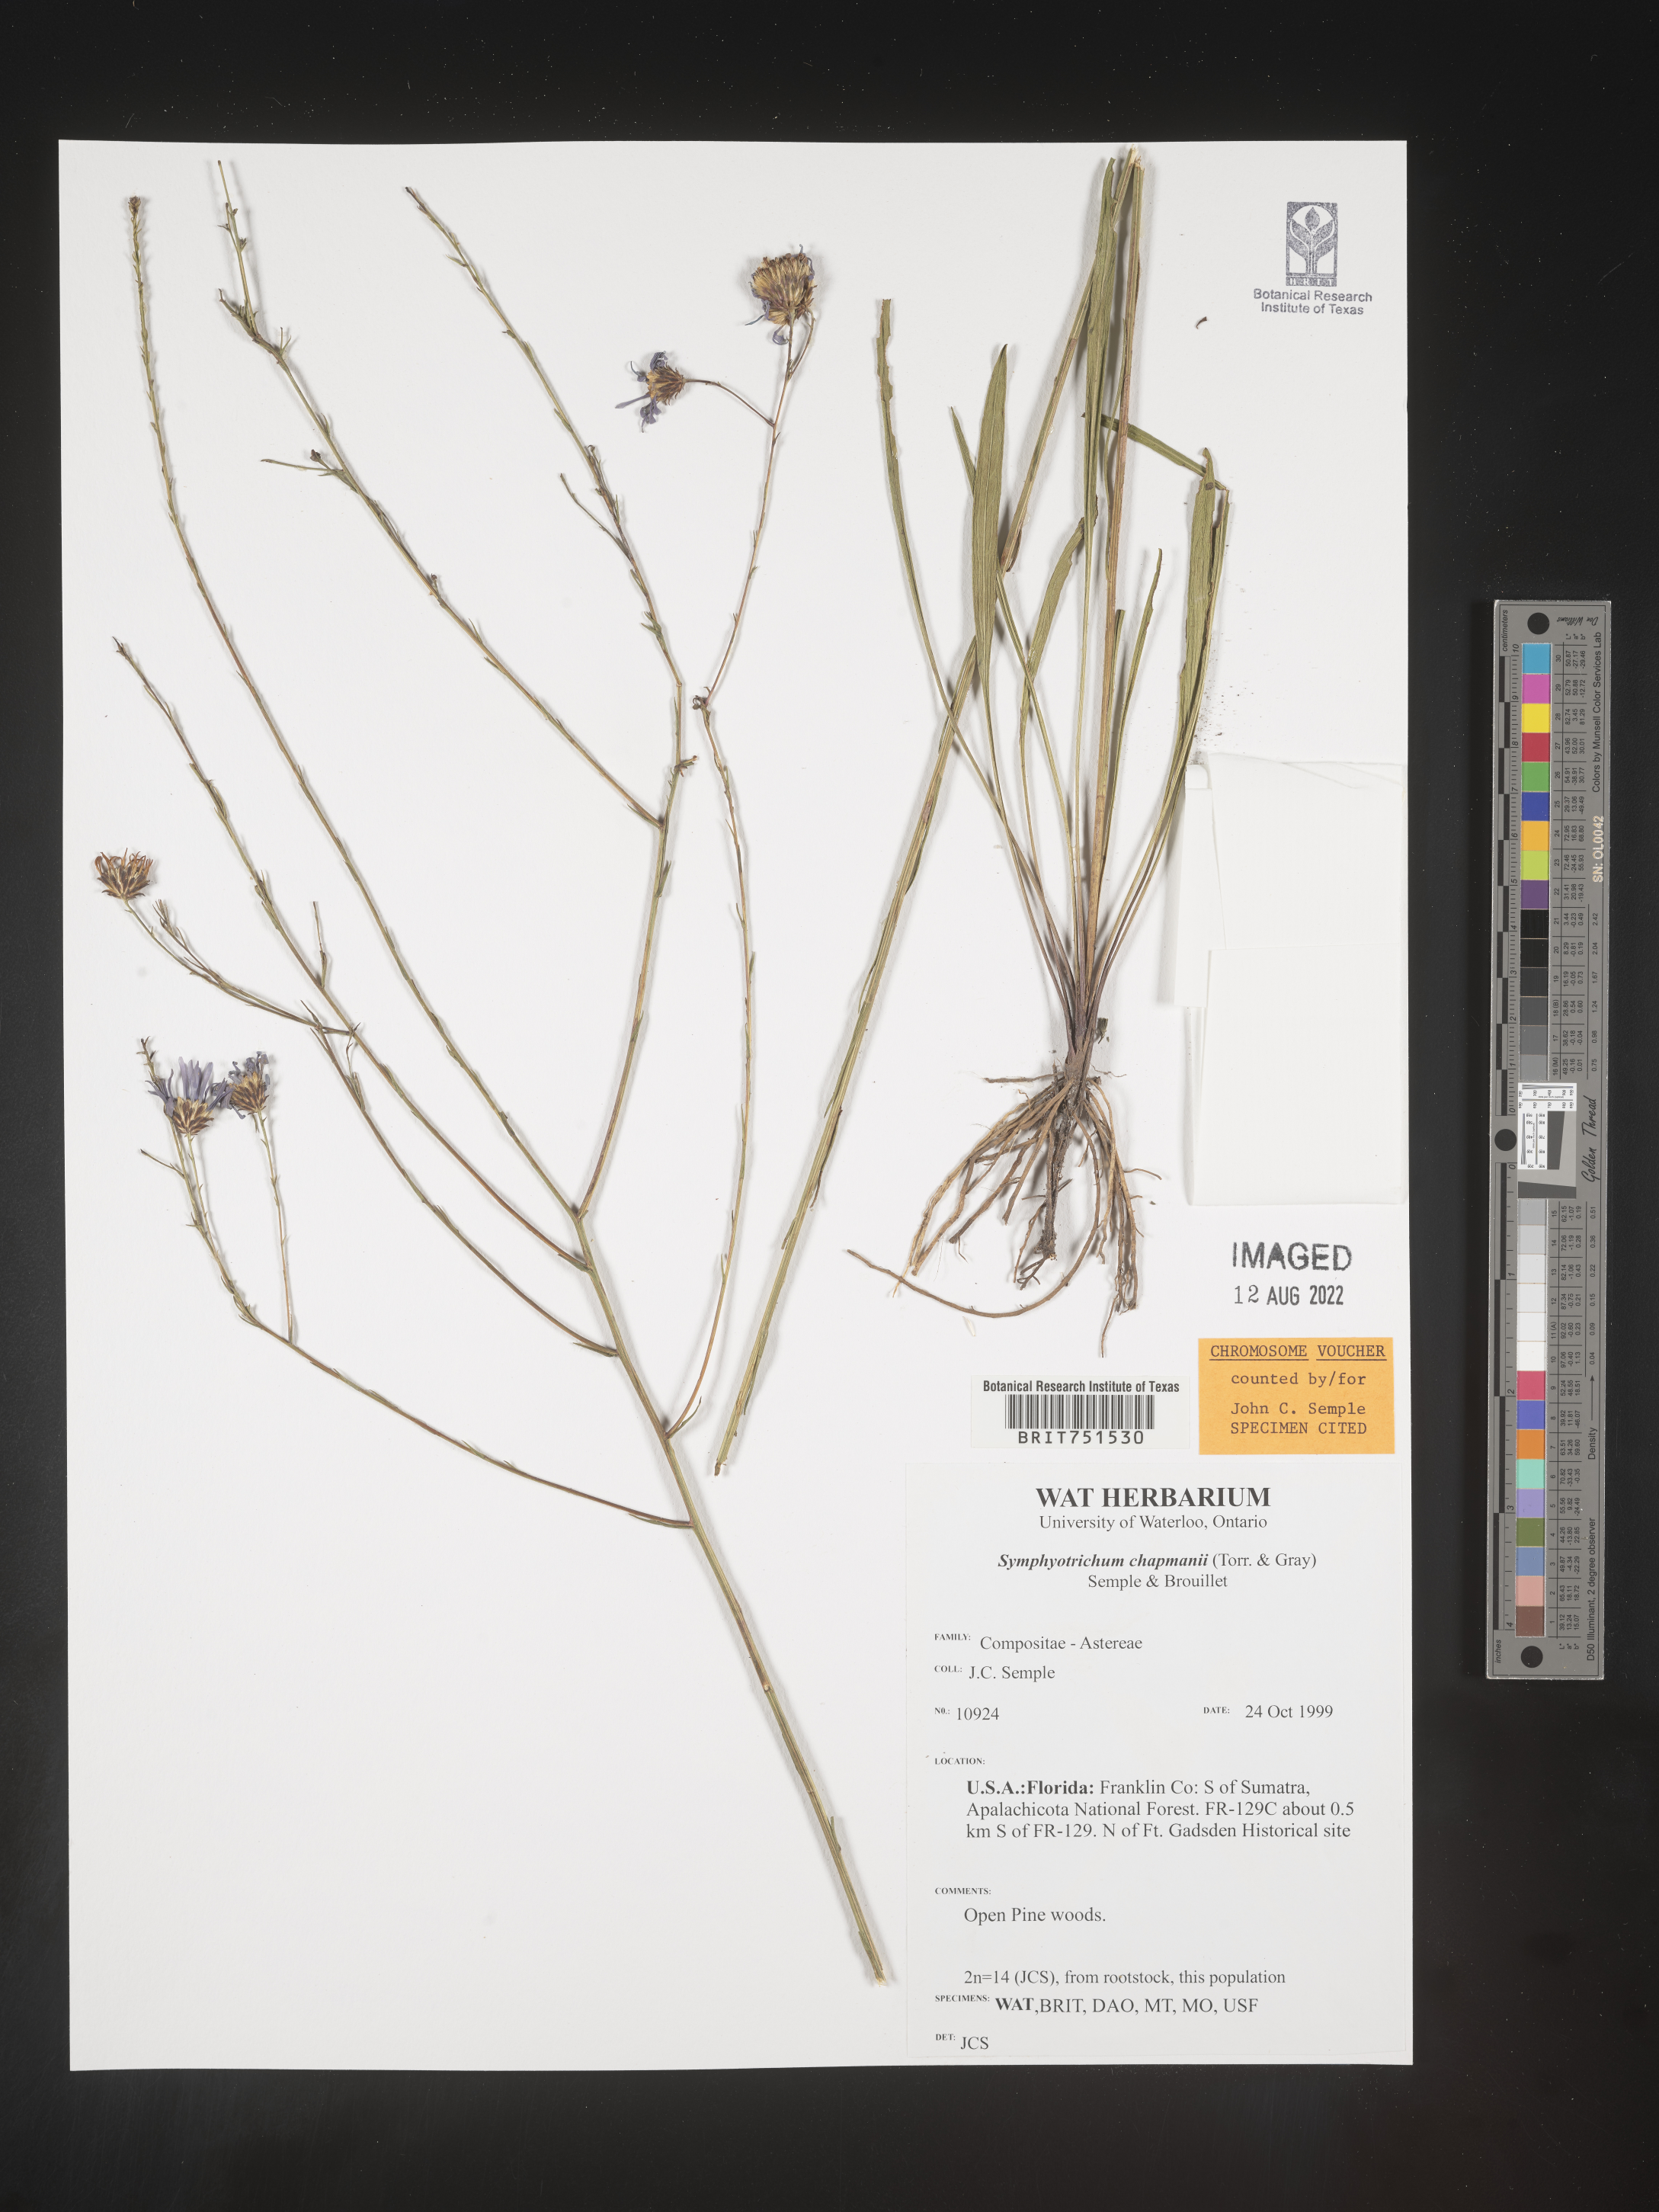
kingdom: Plantae
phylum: Tracheophyta
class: Magnoliopsida
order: Asterales
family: Asteraceae
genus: Symphyotrichum
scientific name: Symphyotrichum chapmanii
